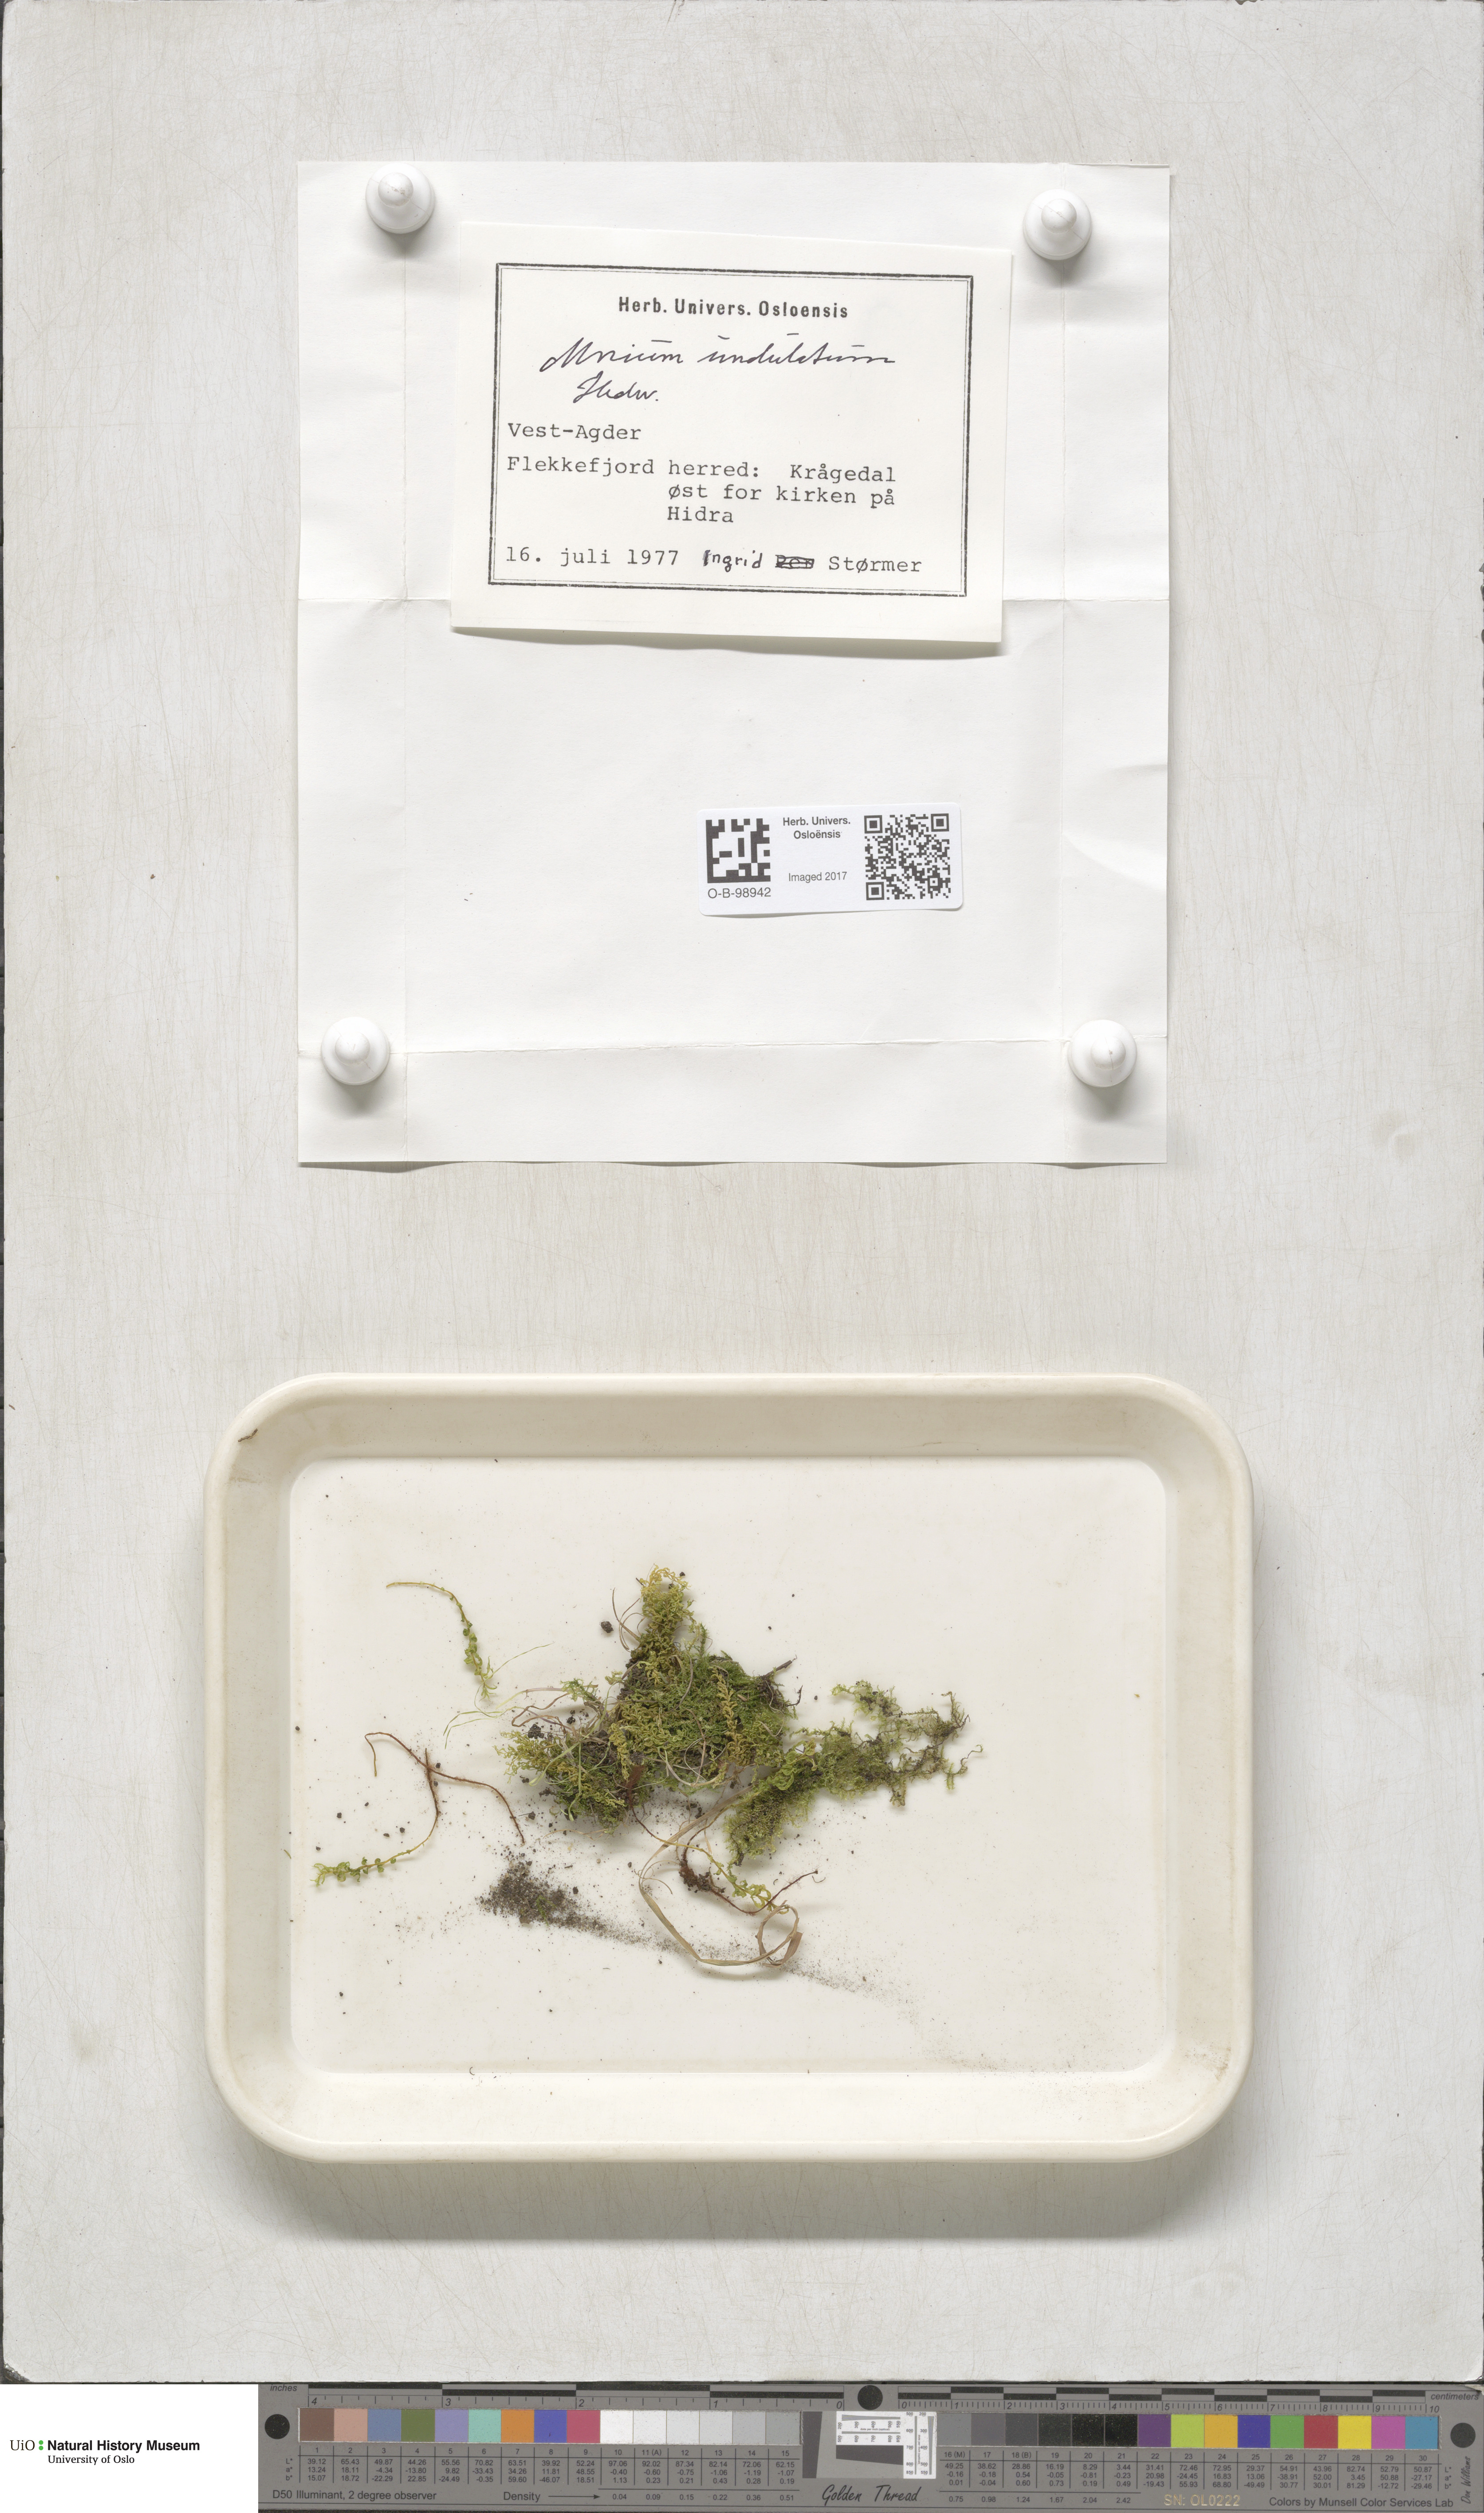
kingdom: Plantae
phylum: Bryophyta
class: Bryopsida
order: Bryales
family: Mniaceae
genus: Plagiomnium
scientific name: Plagiomnium undulatum
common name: Hart's-tongue thyme-moss
